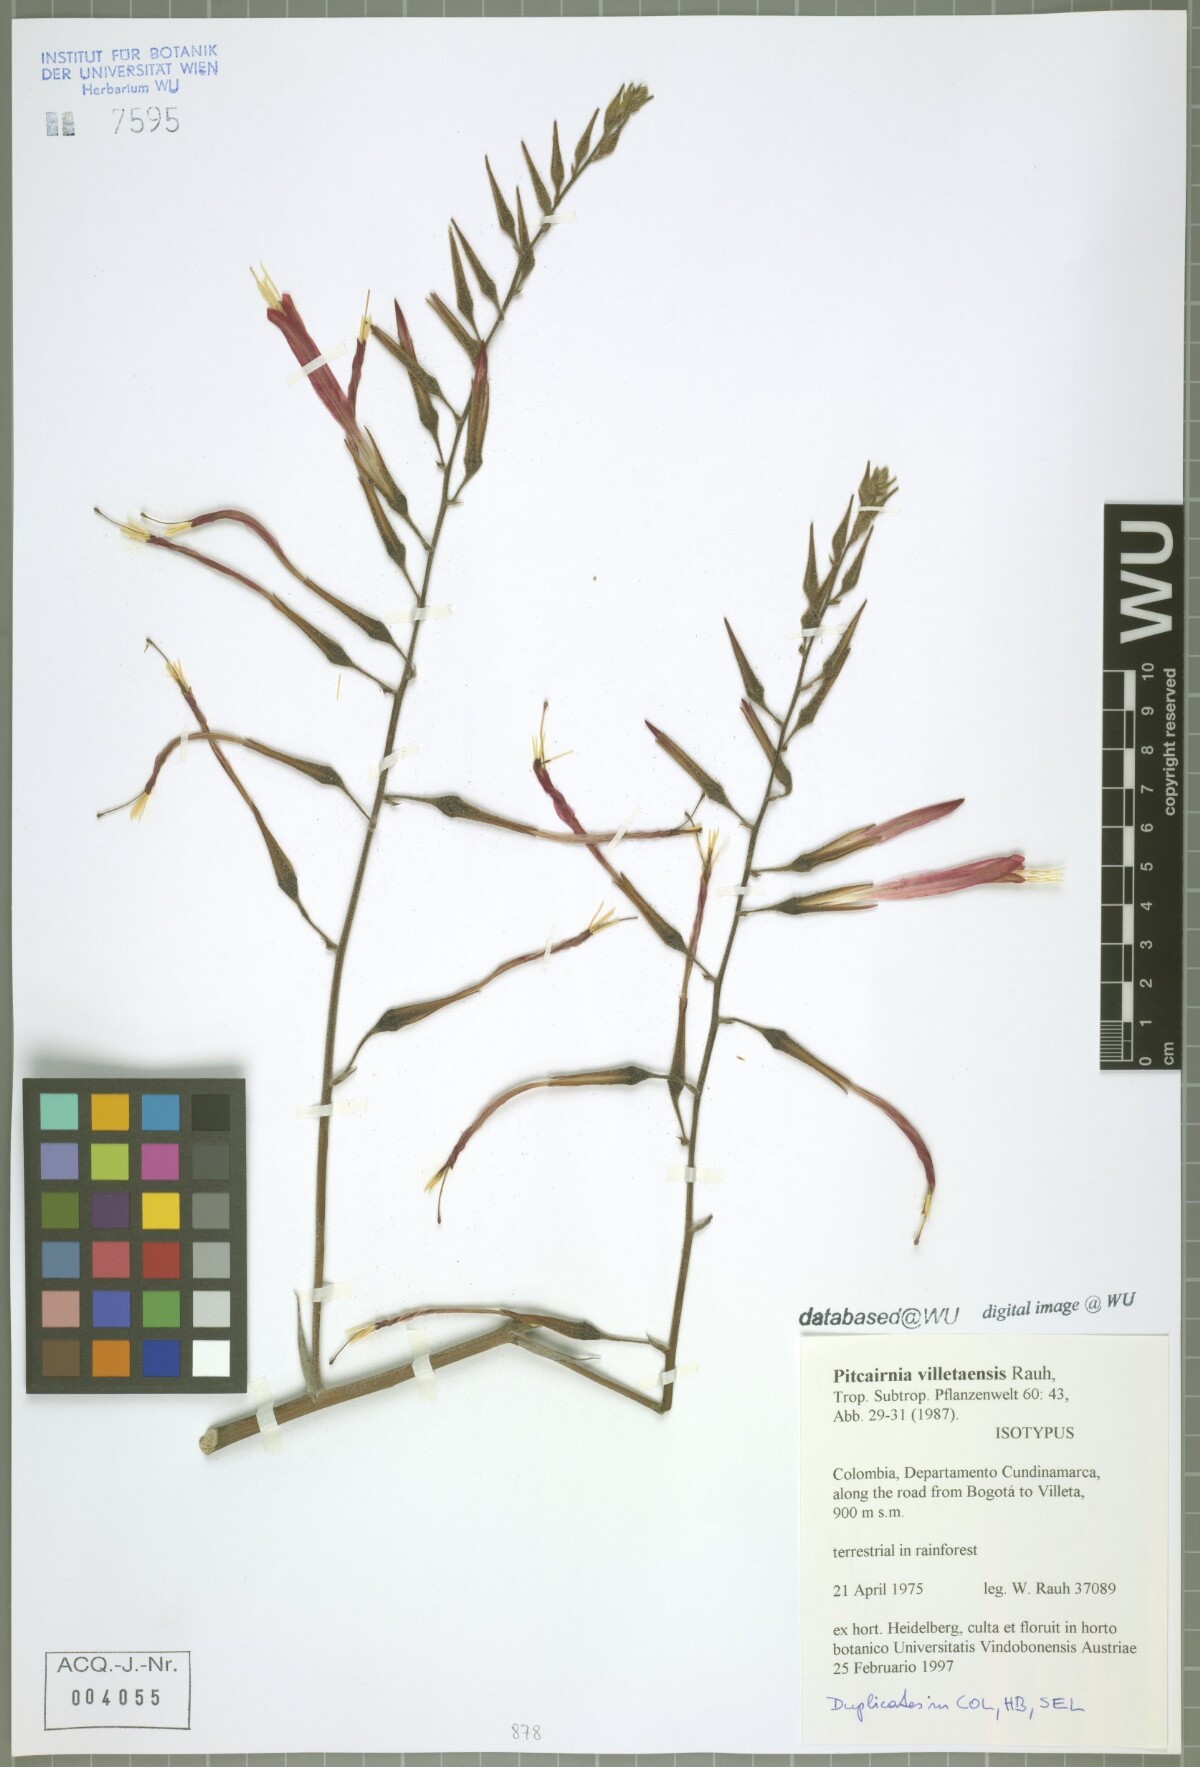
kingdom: Plantae
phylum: Tracheophyta
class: Liliopsida
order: Poales
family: Bromeliaceae
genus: Pitcairnia
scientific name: Pitcairnia villetaensis
